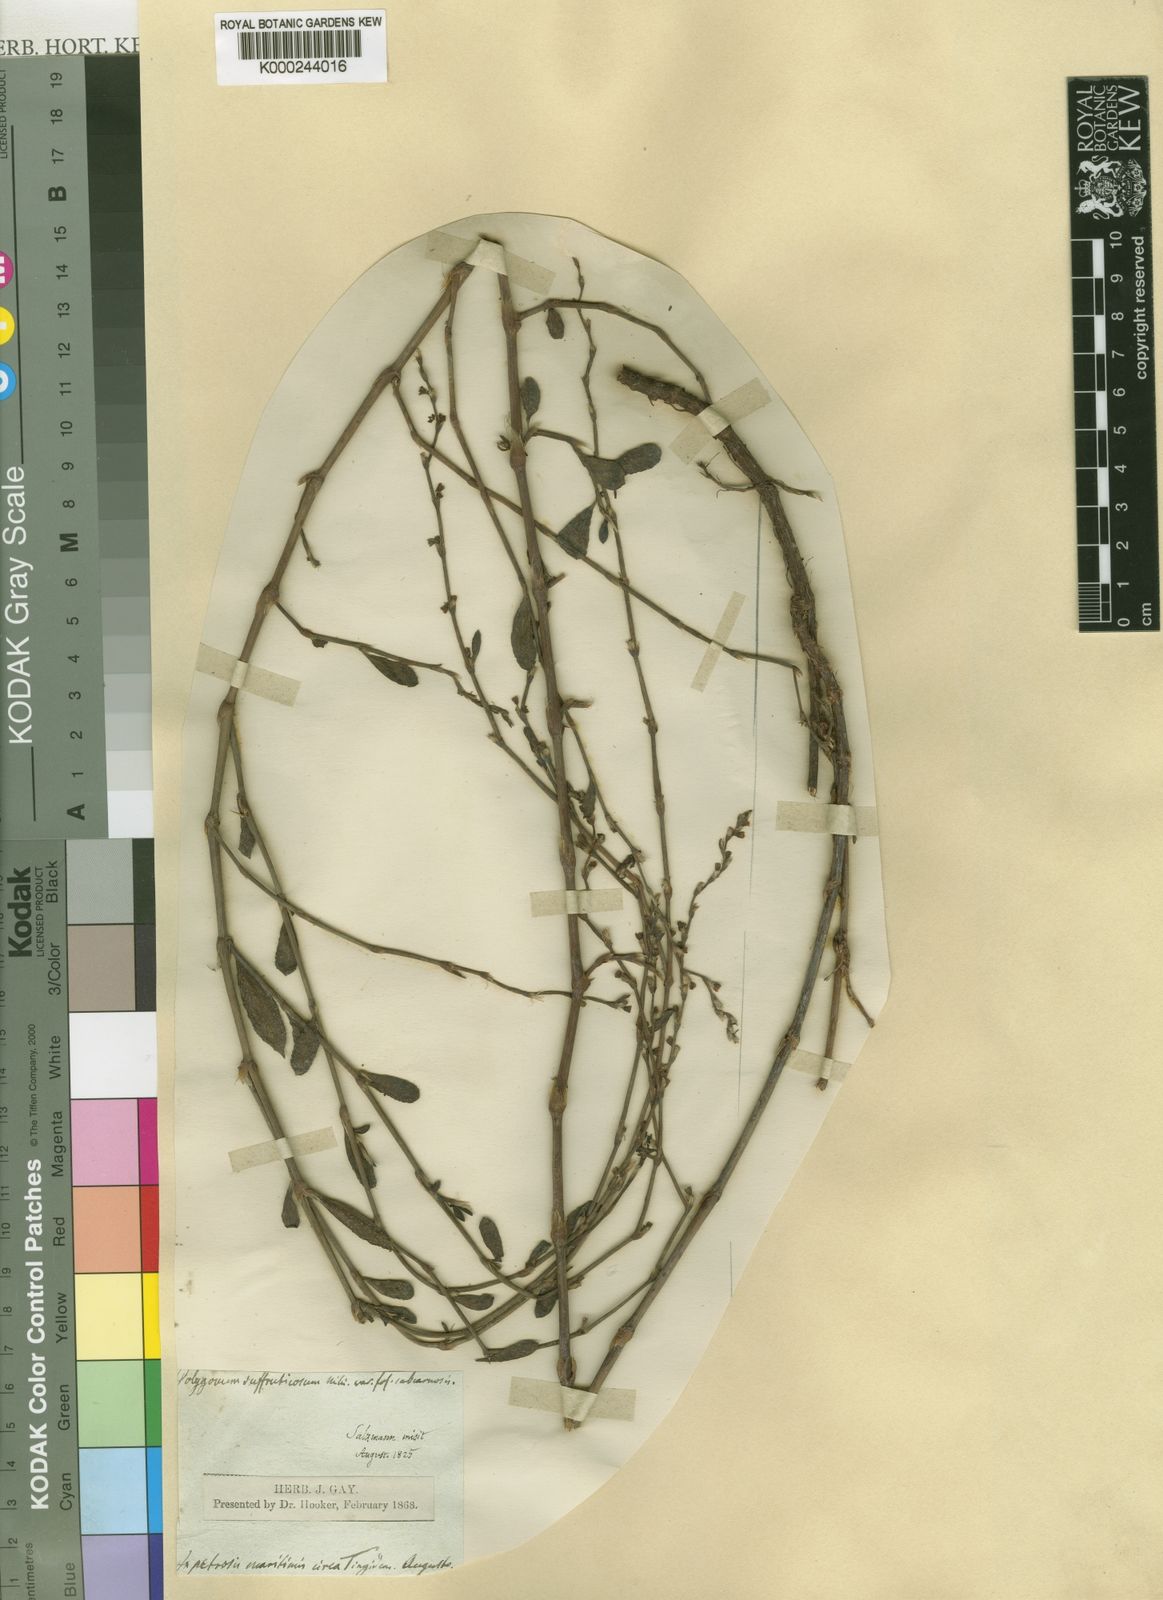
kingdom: Plantae
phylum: Tracheophyta
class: Magnoliopsida
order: Caryophyllales
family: Polygonaceae
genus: Polygonum
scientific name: Polygonum equisetiforme
